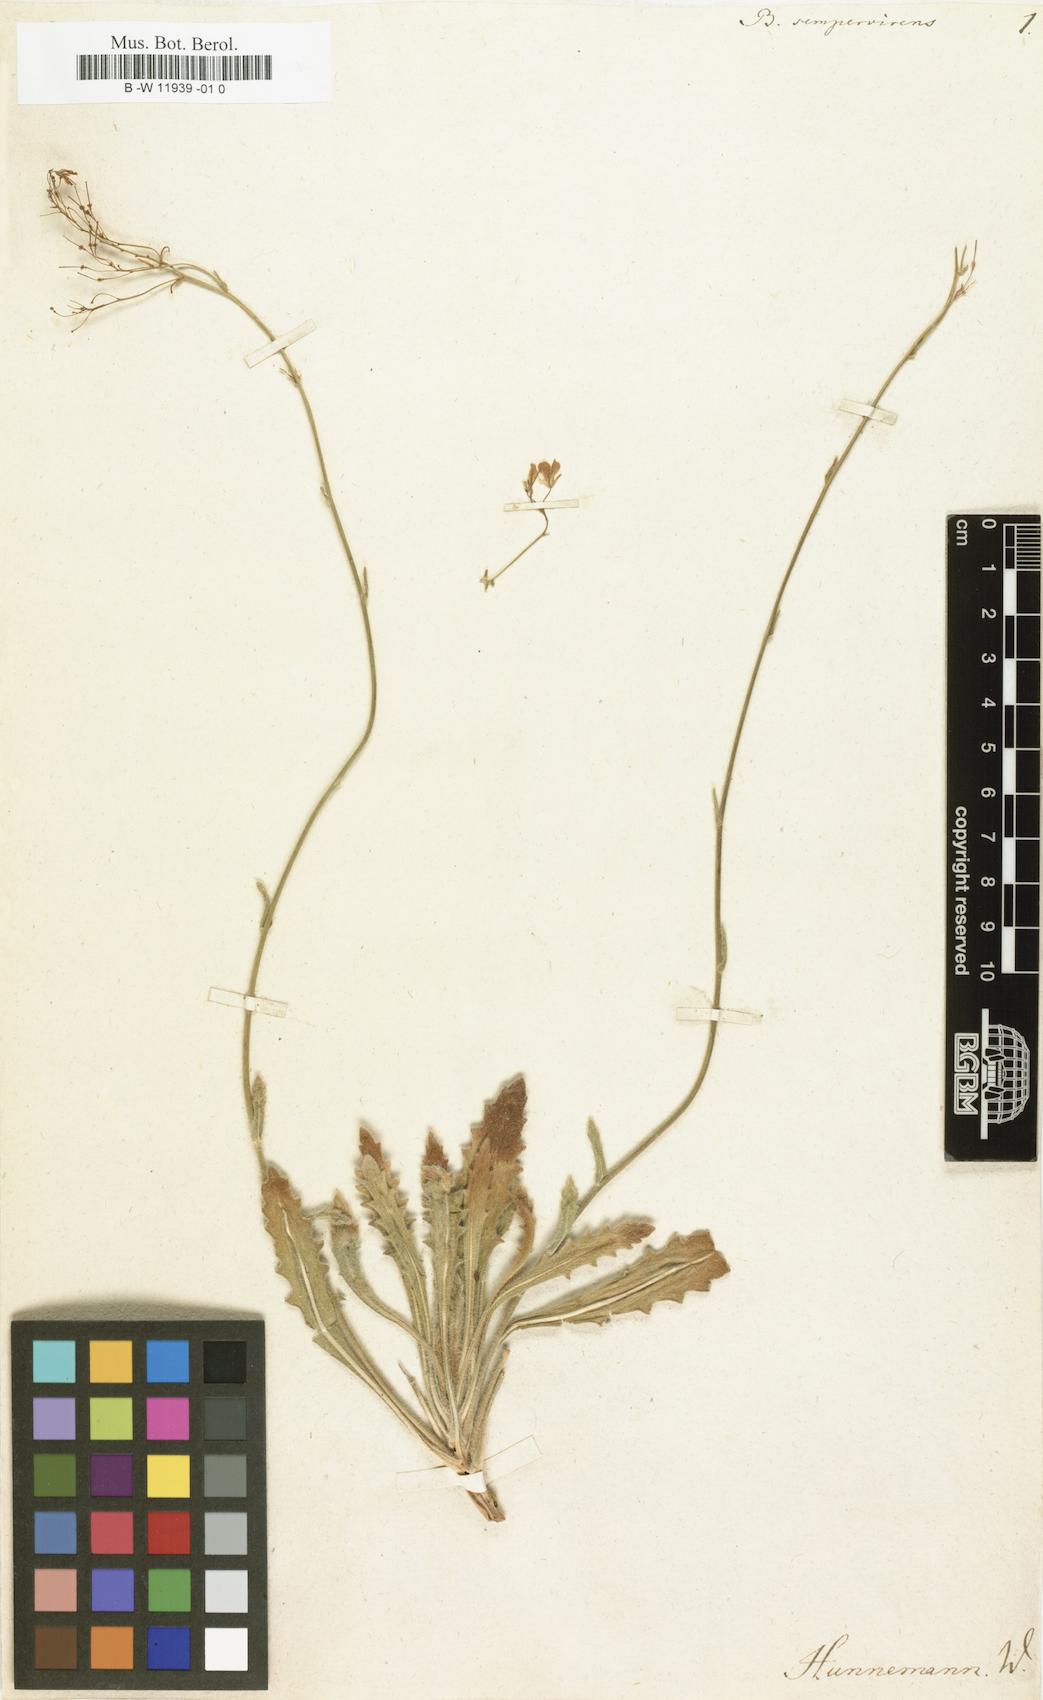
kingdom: Plantae
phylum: Tracheophyta
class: Magnoliopsida
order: Brassicales
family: Brassicaceae
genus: Biscutella
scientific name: Biscutella sempervirens
